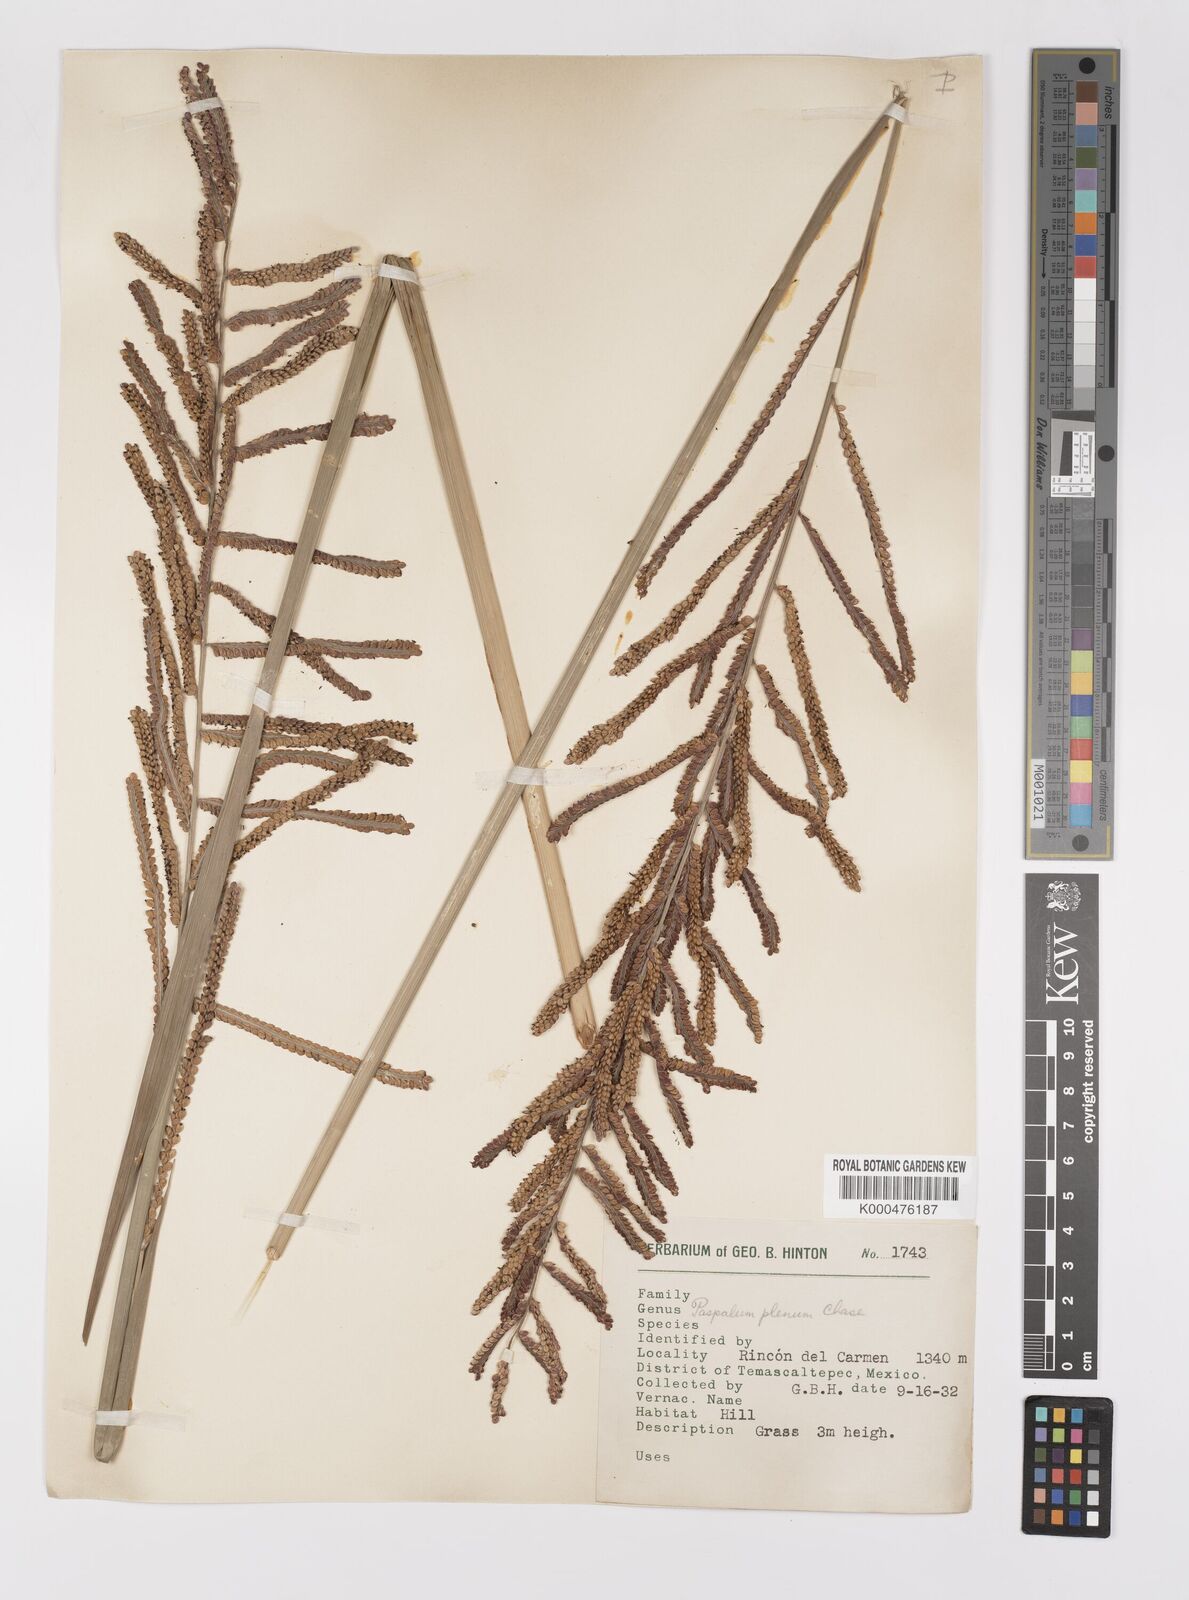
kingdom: Plantae
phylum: Tracheophyta
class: Liliopsida
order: Poales
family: Poaceae
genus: Paspalum
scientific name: Paspalum plenum
